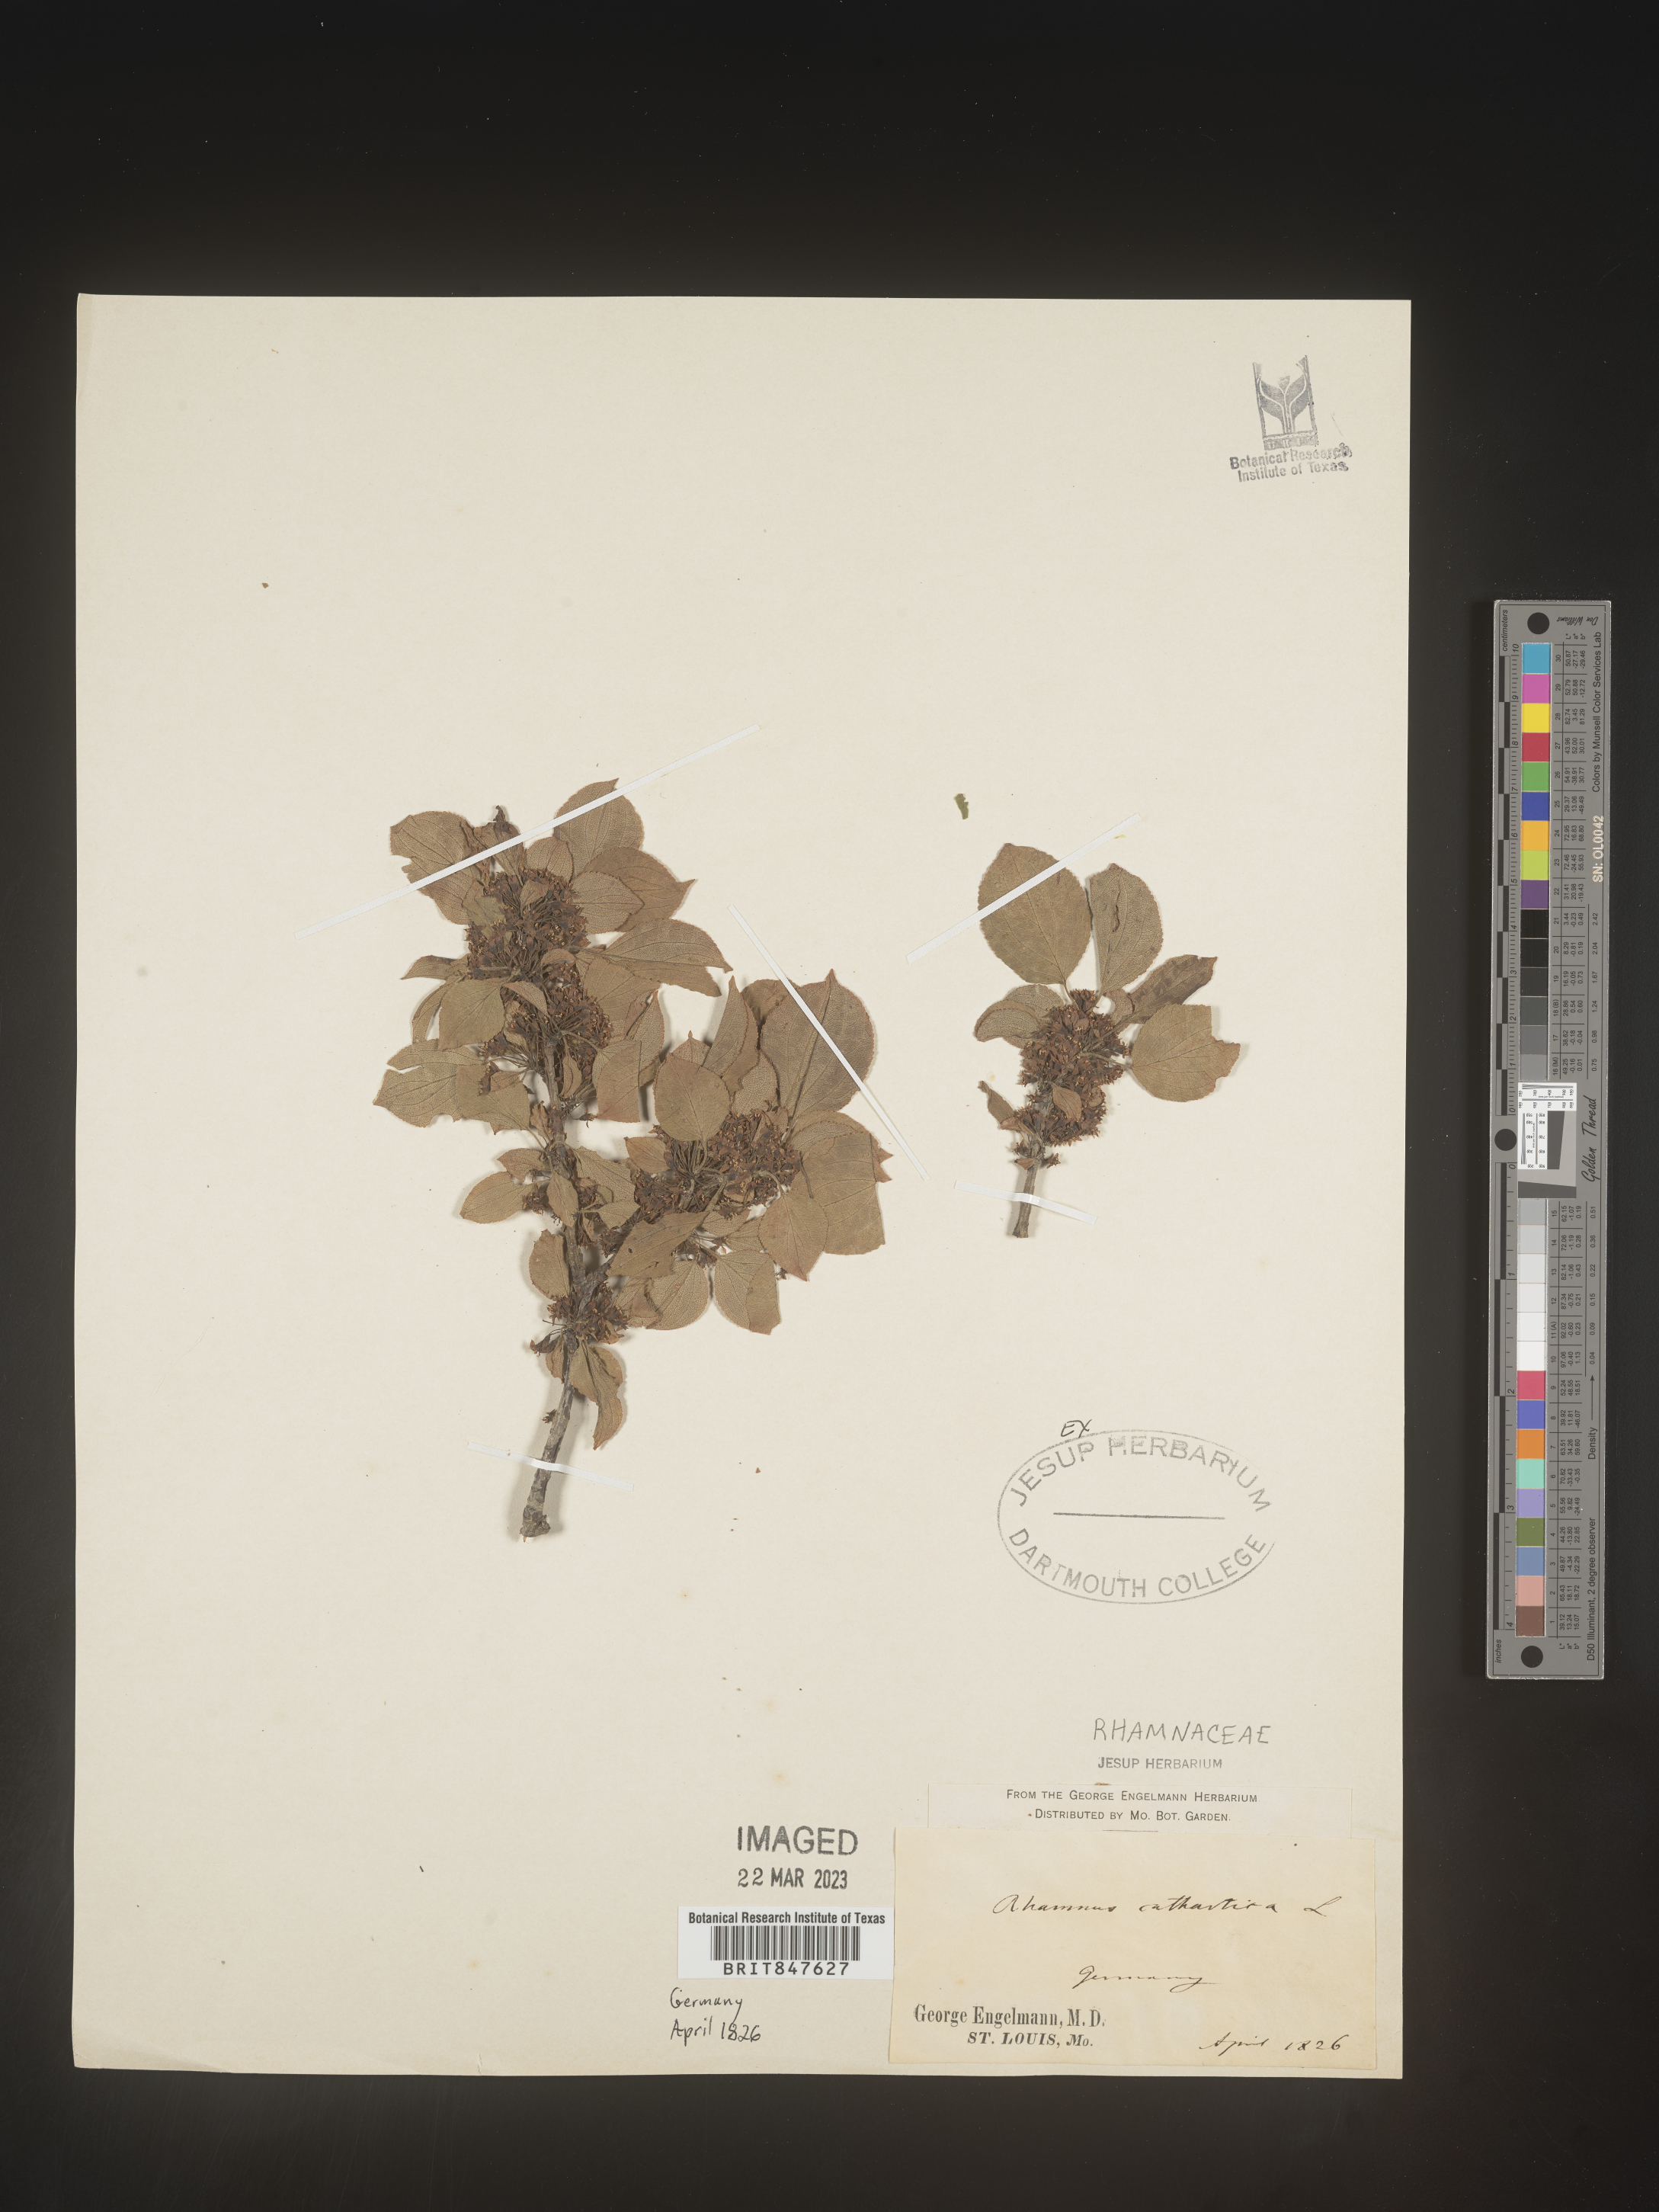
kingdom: Plantae
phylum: Tracheophyta
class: Magnoliopsida
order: Rosales
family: Rhamnaceae
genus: Rhamnus
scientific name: Rhamnus cathartica
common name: Common buckthorn
